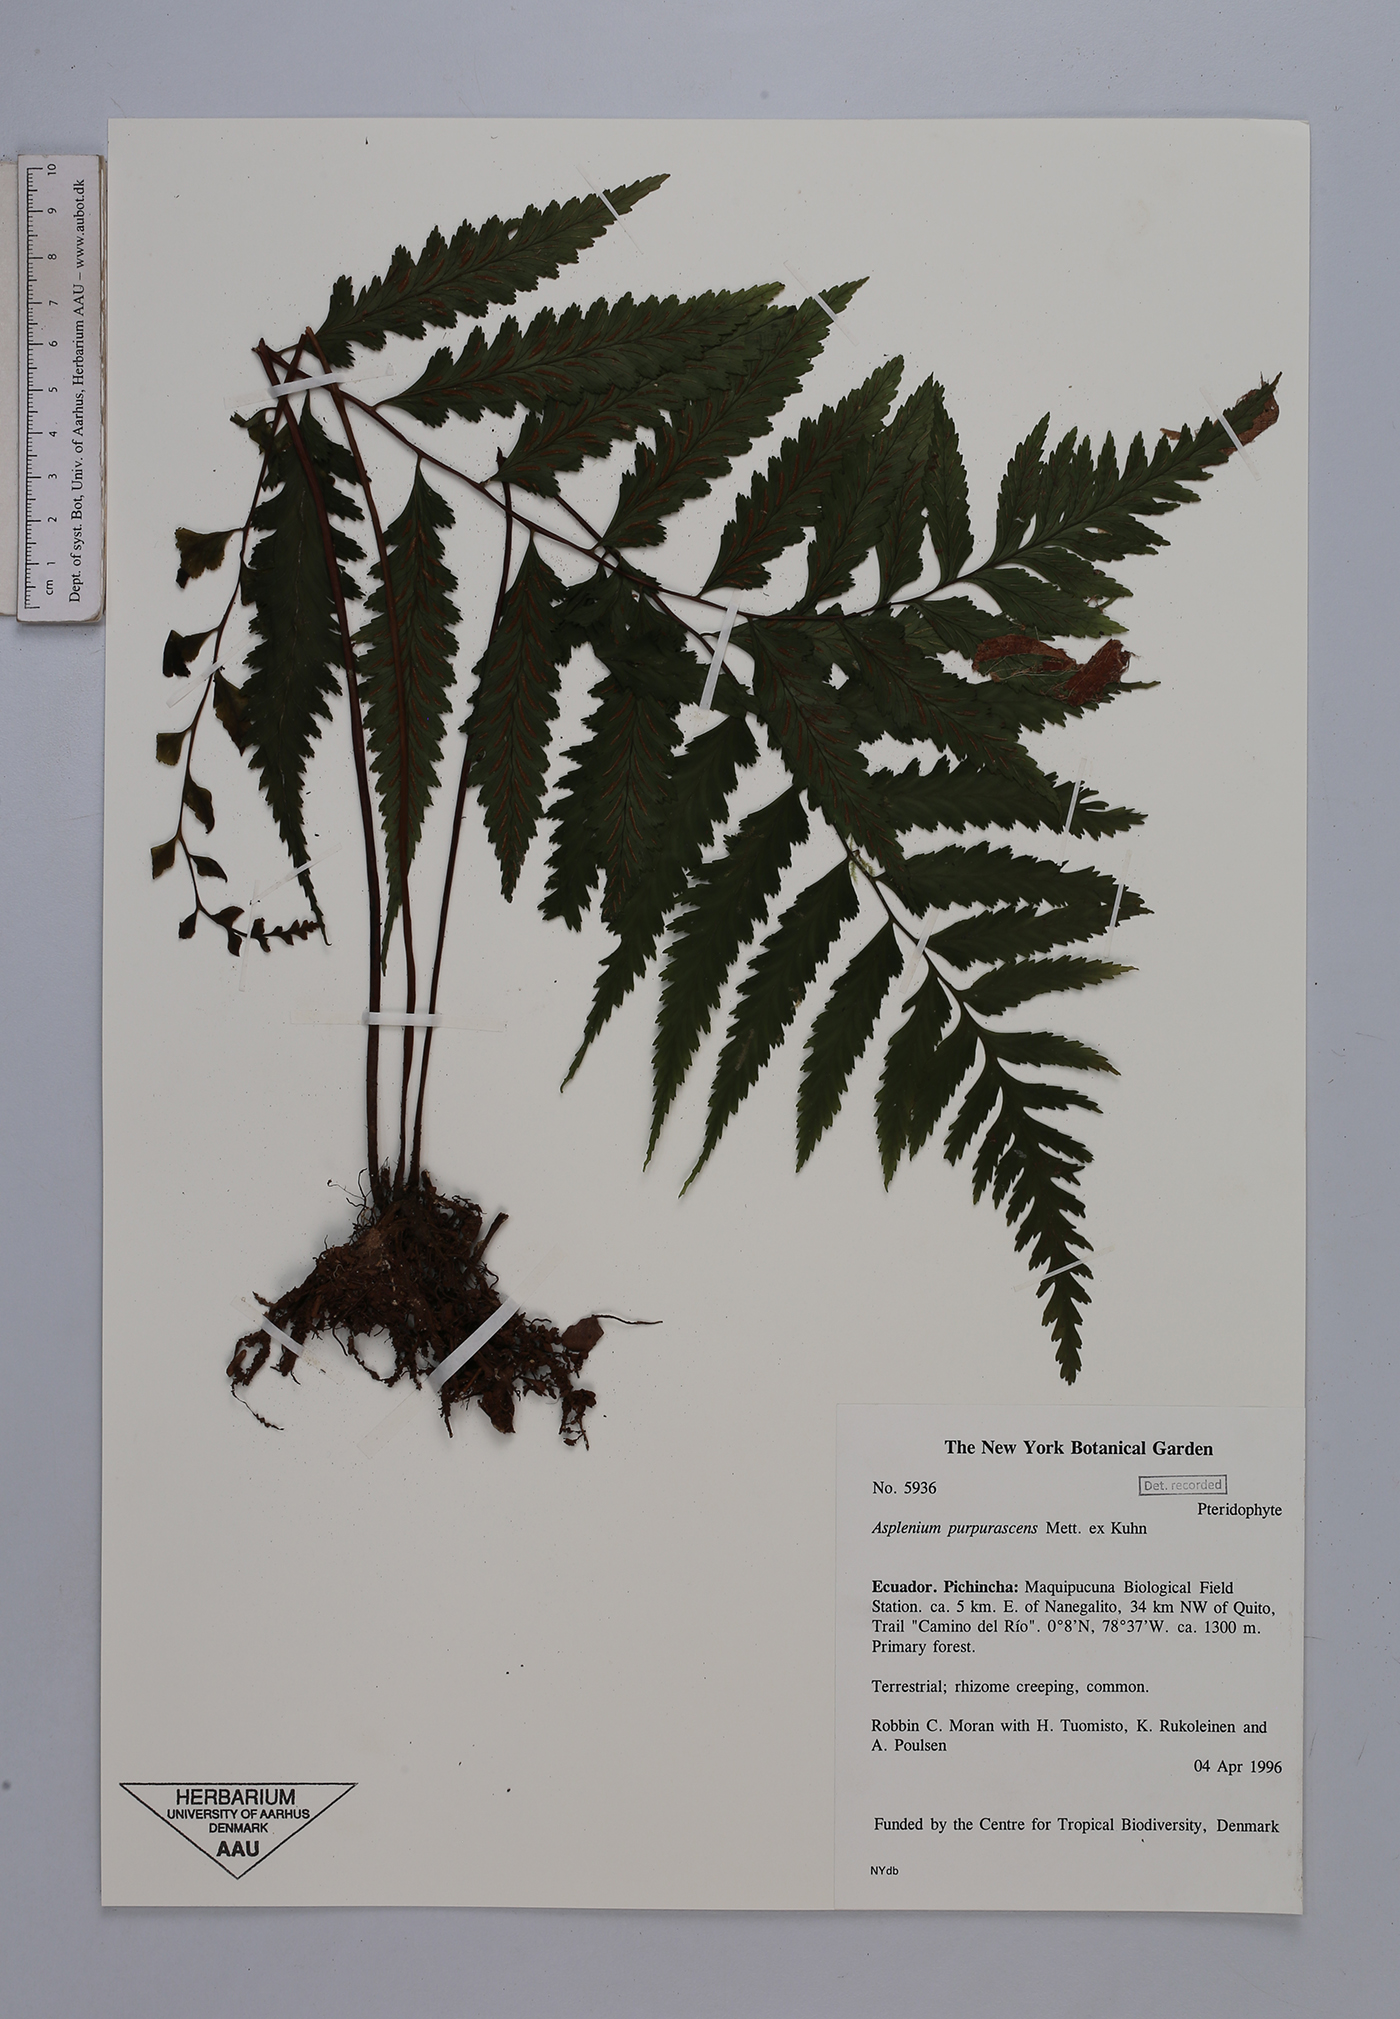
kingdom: Plantae
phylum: Tracheophyta
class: Polypodiopsida
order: Polypodiales
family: Aspleniaceae
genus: Hymenasplenium
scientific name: Hymenasplenium purpurascens
